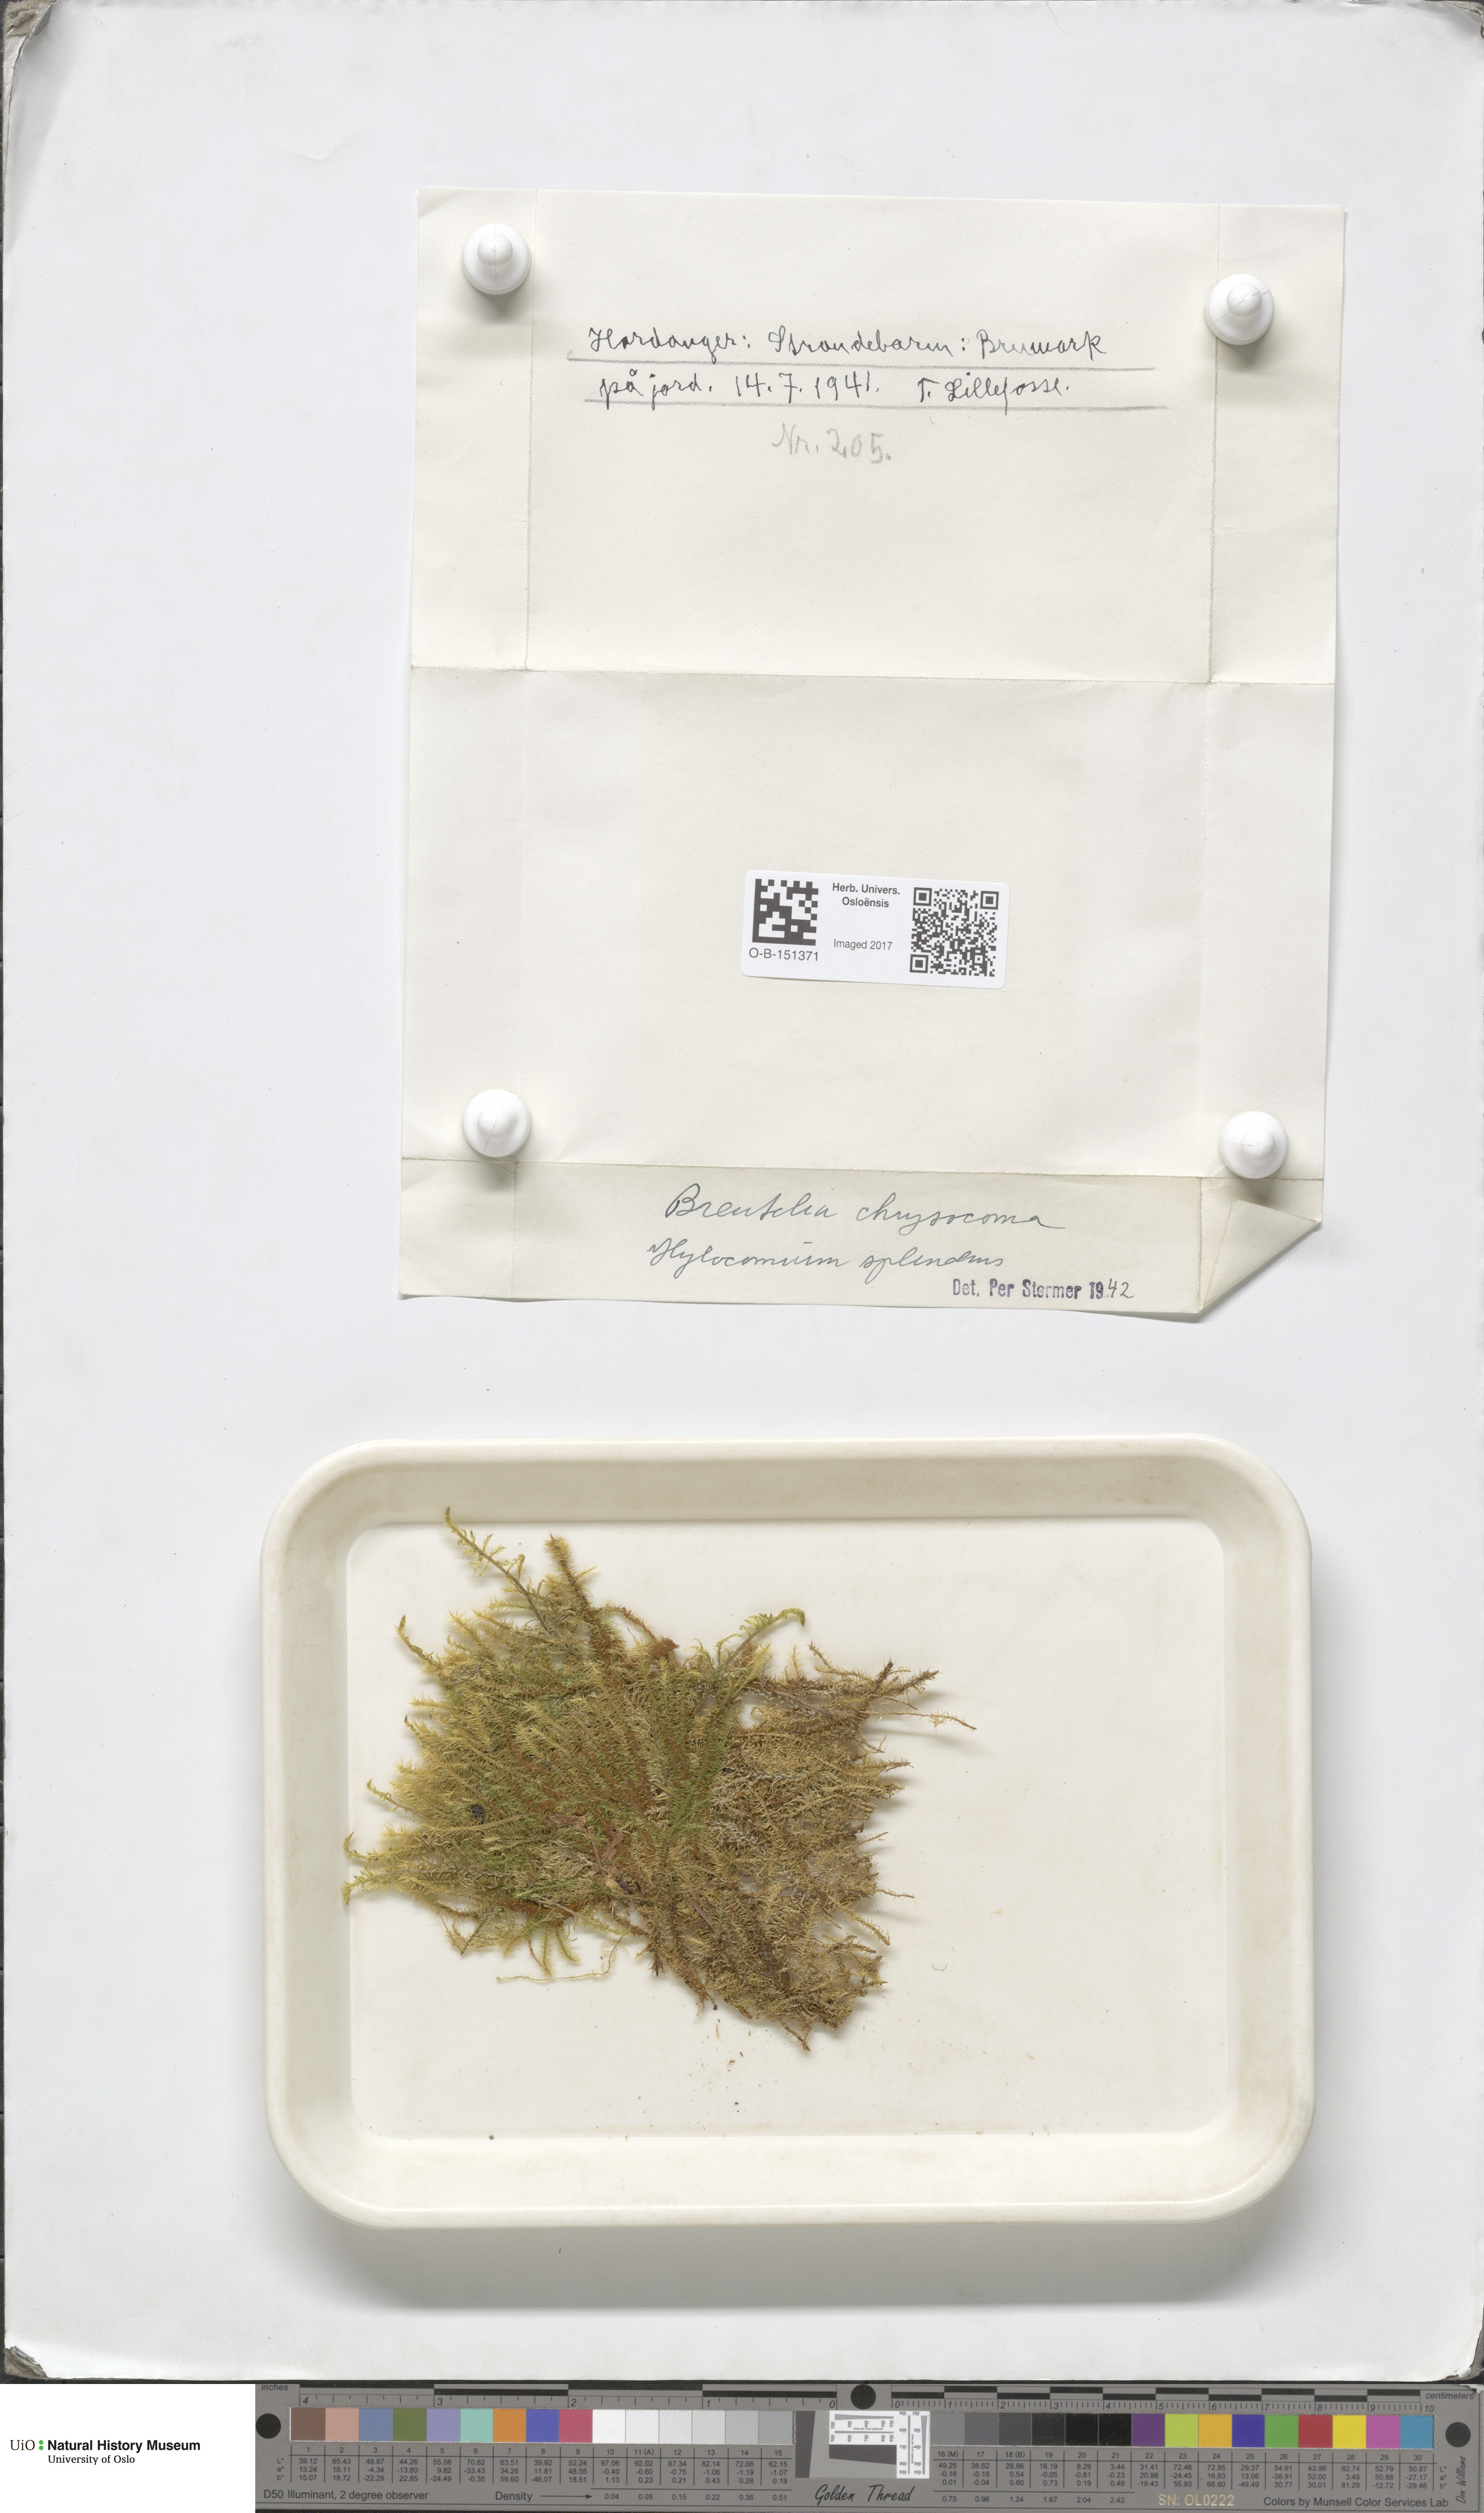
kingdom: Plantae
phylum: Bryophyta
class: Bryopsida
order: Bartramiales
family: Bartramiaceae
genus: Breutelia
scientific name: Breutelia chrysocoma
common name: Bottle-brush moss
